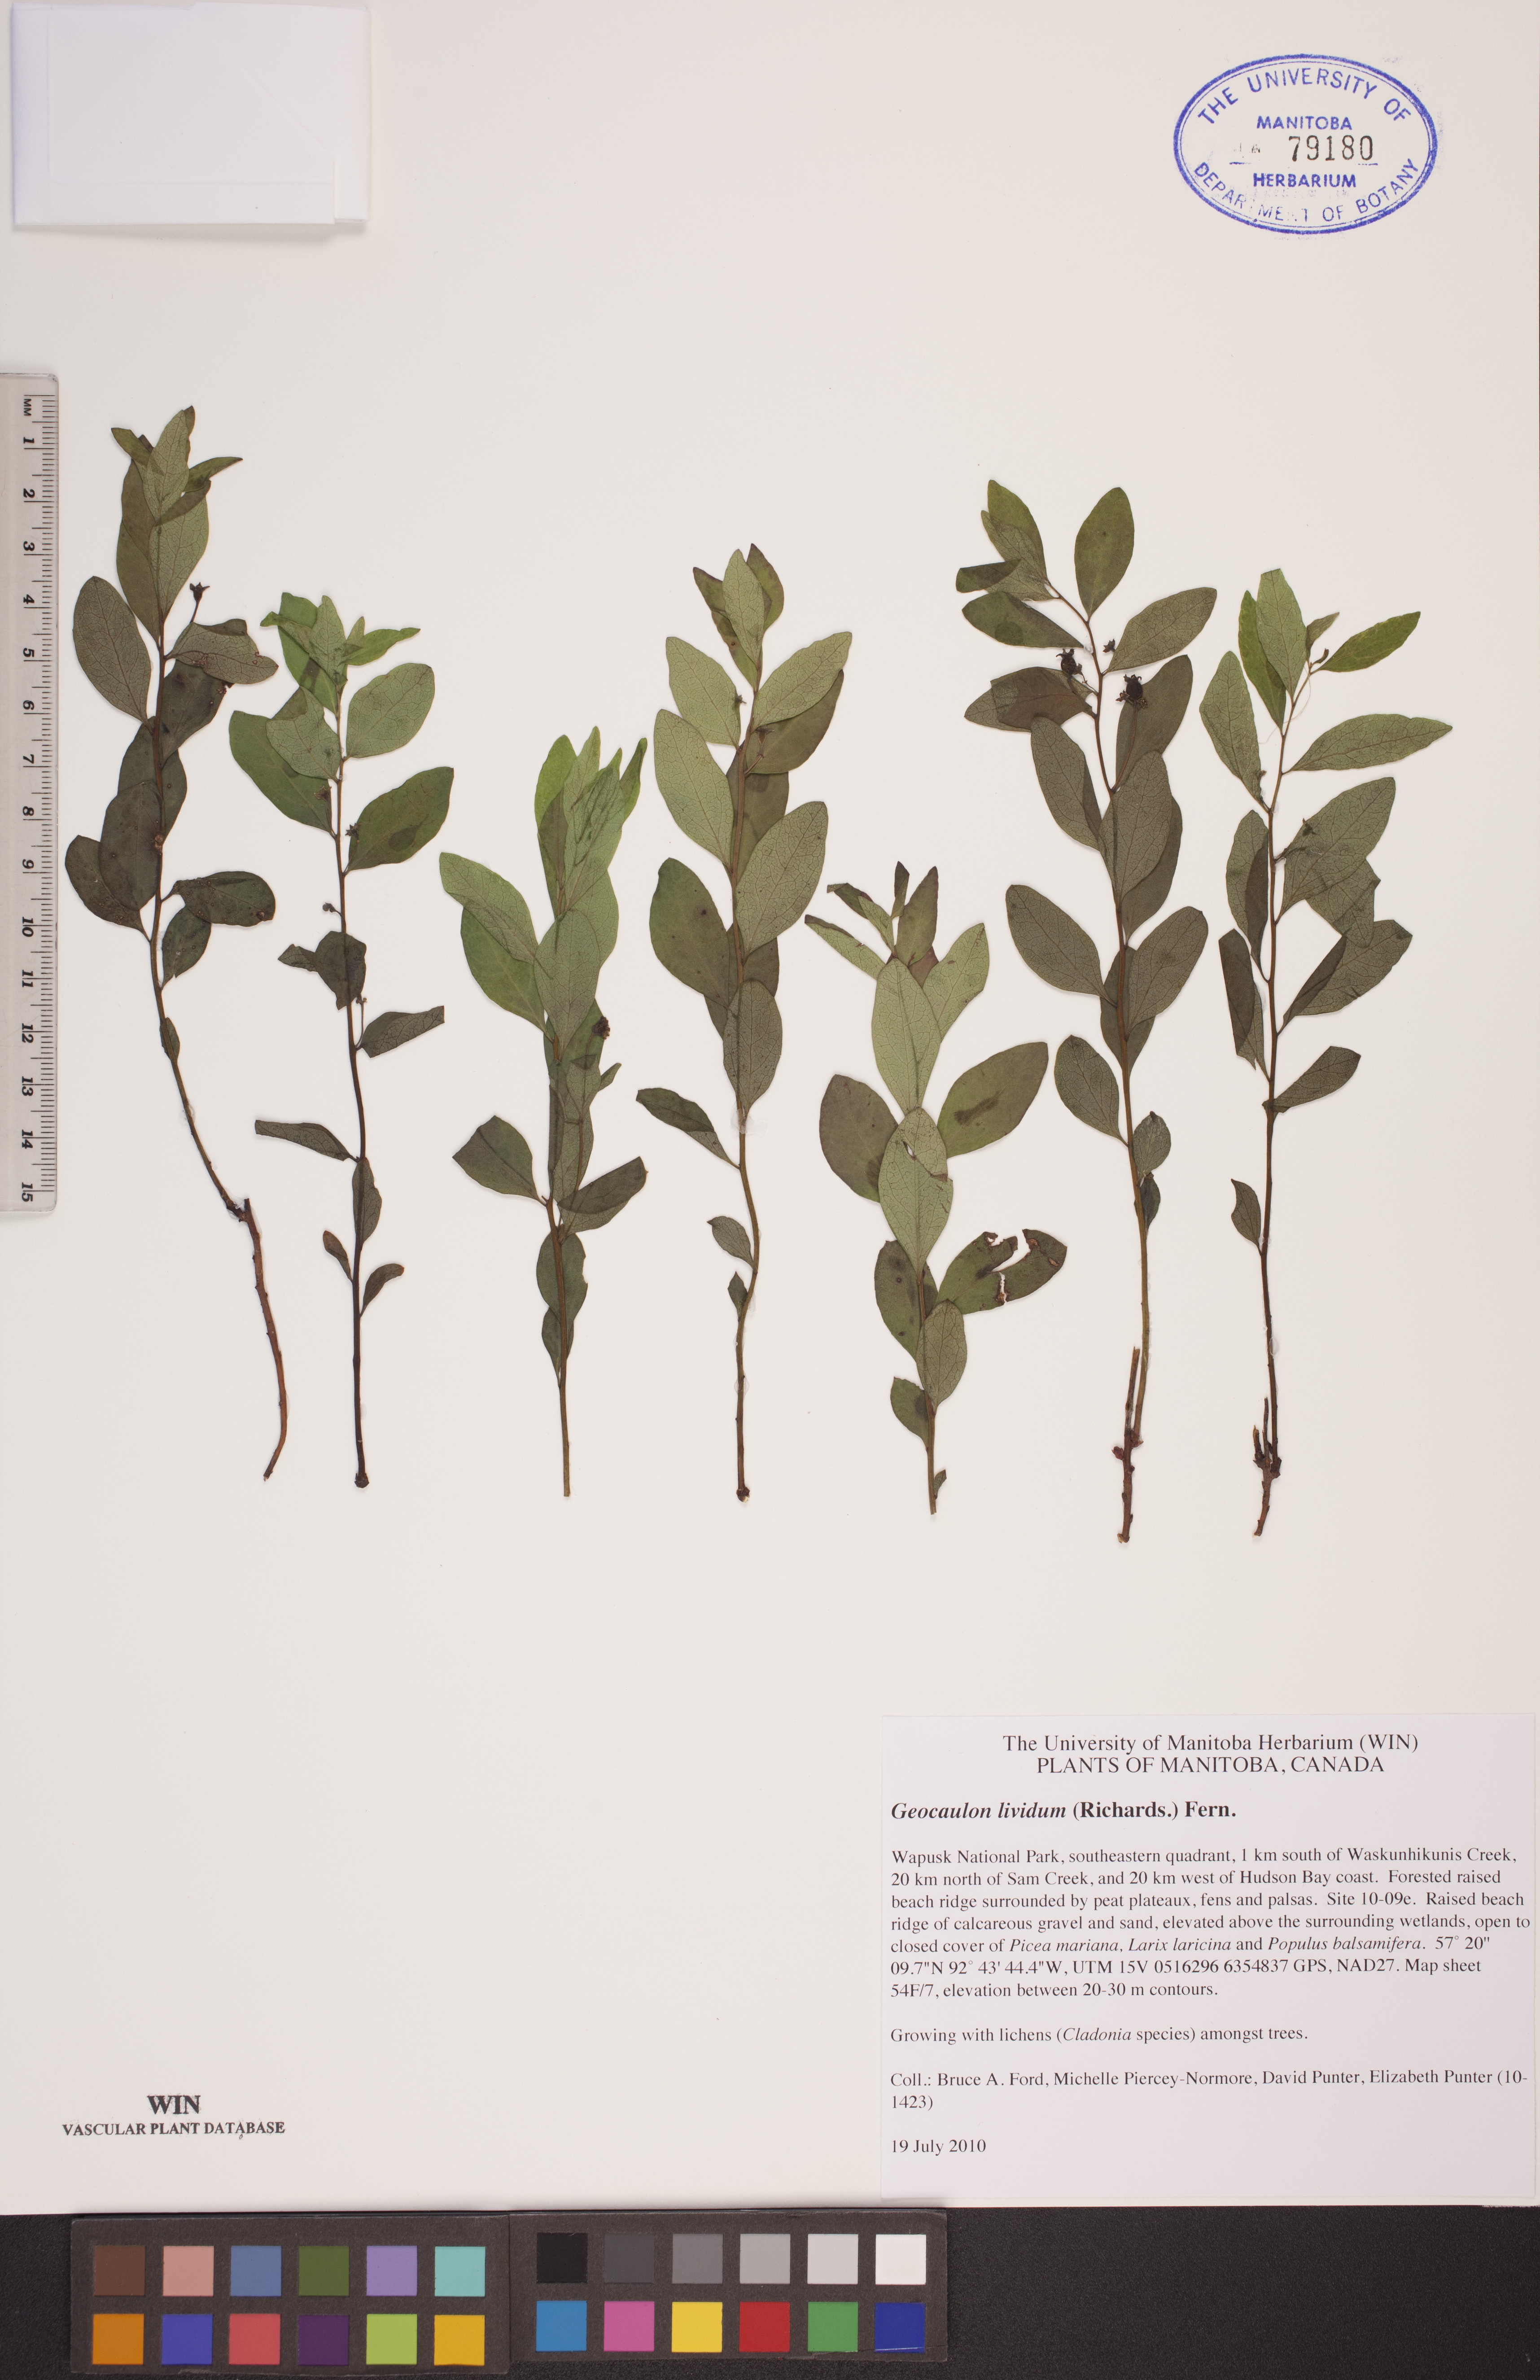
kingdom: Plantae
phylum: Tracheophyta
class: Magnoliopsida
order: Santalales
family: Comandraceae
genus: Geocaulon
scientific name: Geocaulon lividum
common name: Earthberry
